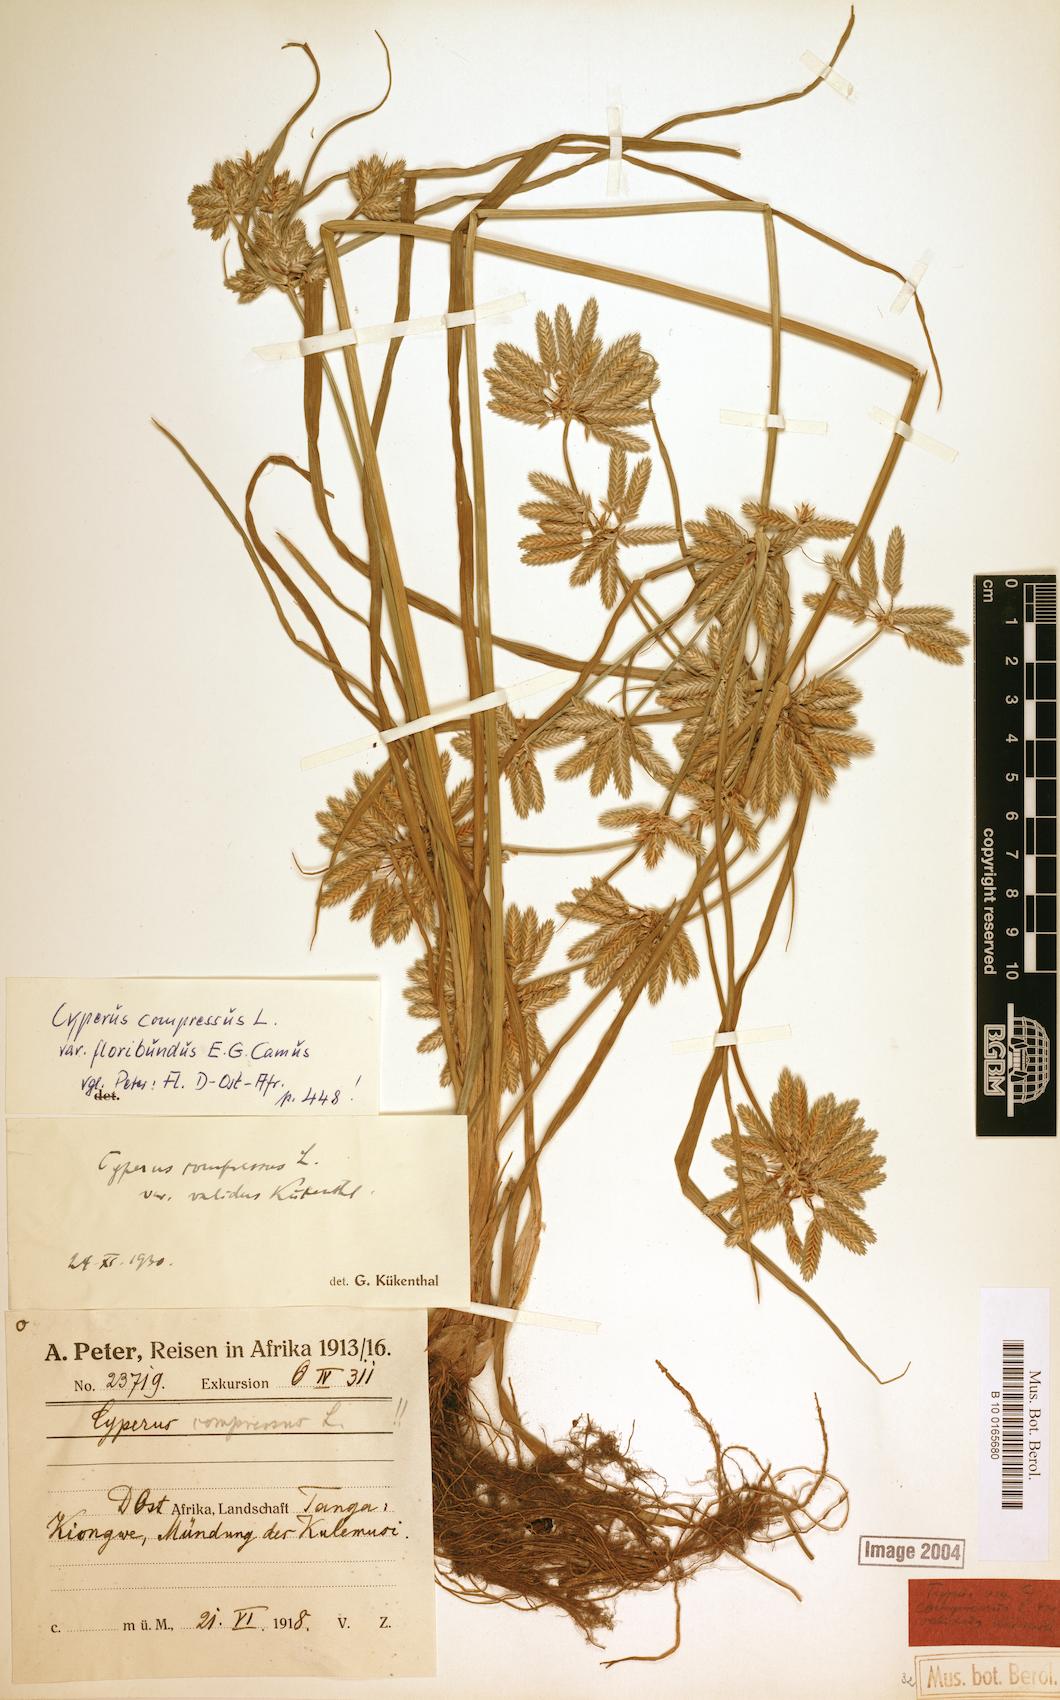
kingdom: Plantae
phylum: Tracheophyta
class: Liliopsida
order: Poales
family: Cyperaceae
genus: Cyperus
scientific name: Cyperus compressus
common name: Poorland flatsedge
